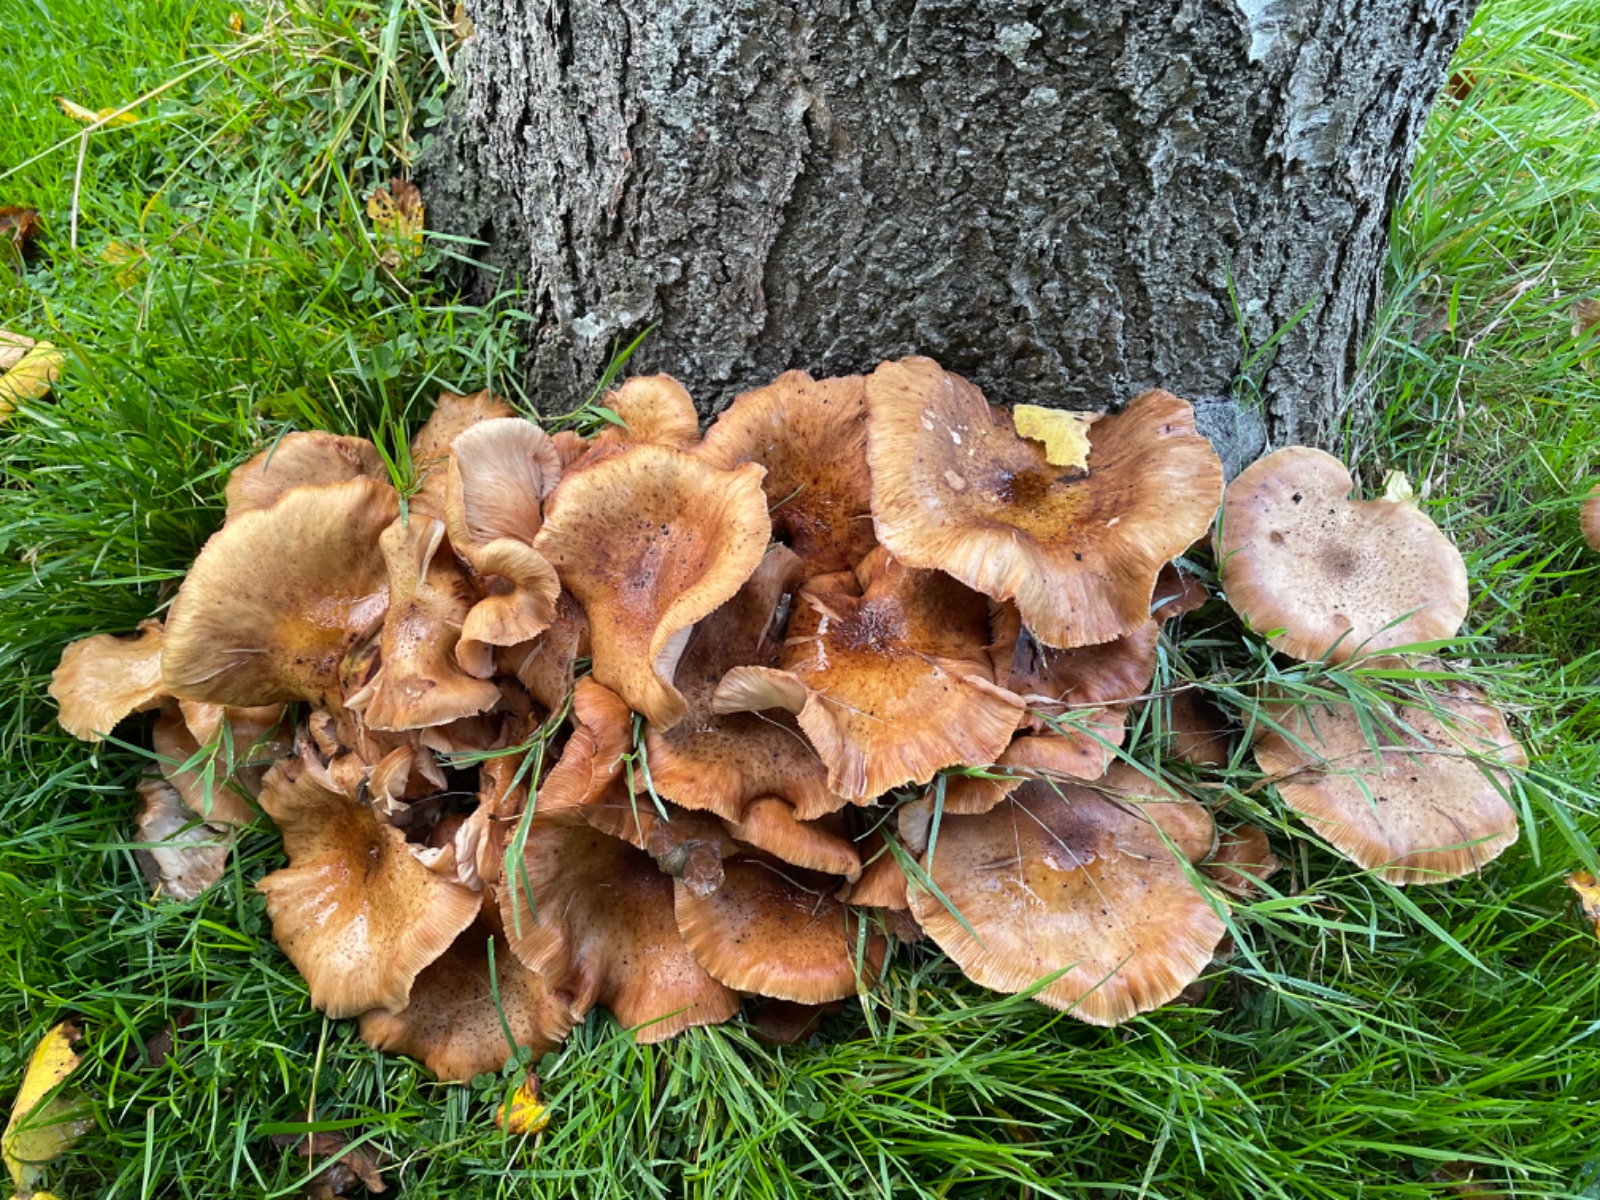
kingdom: Fungi
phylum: Basidiomycota
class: Agaricomycetes
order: Agaricales
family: Physalacriaceae
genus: Armillaria
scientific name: Armillaria
